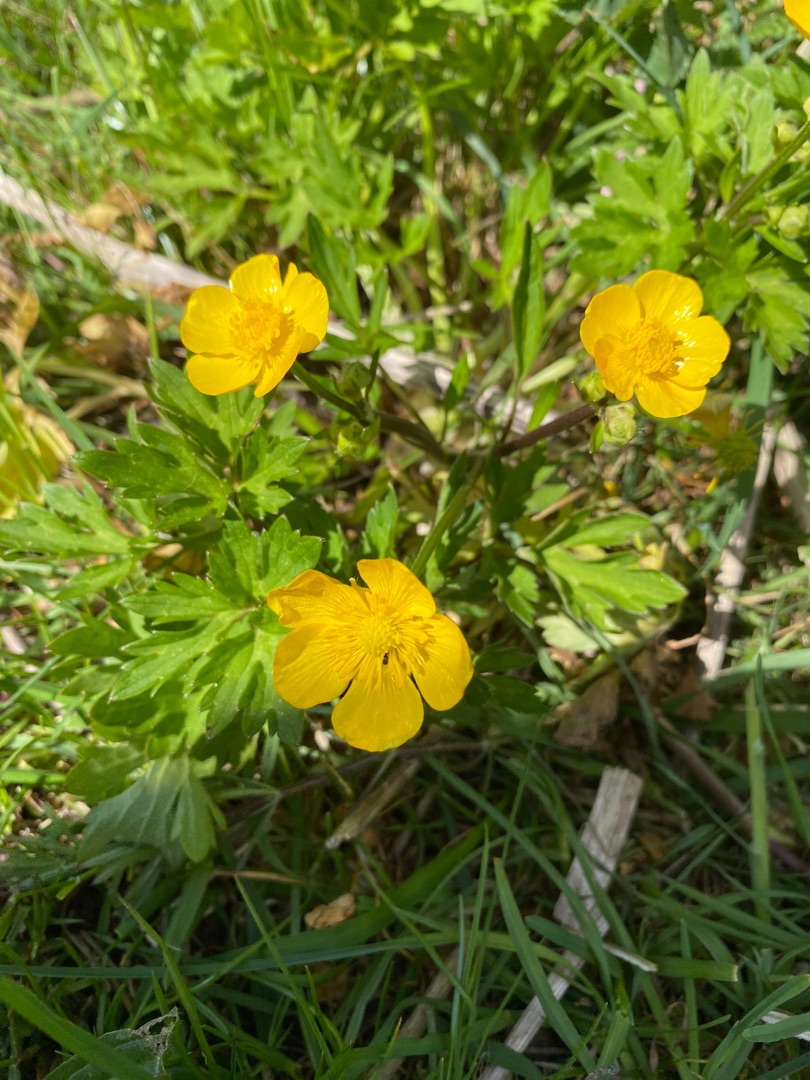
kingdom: Plantae
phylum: Tracheophyta
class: Magnoliopsida
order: Ranunculales
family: Ranunculaceae
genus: Ranunculus
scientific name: Ranunculus repens
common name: Lav ranunkel
